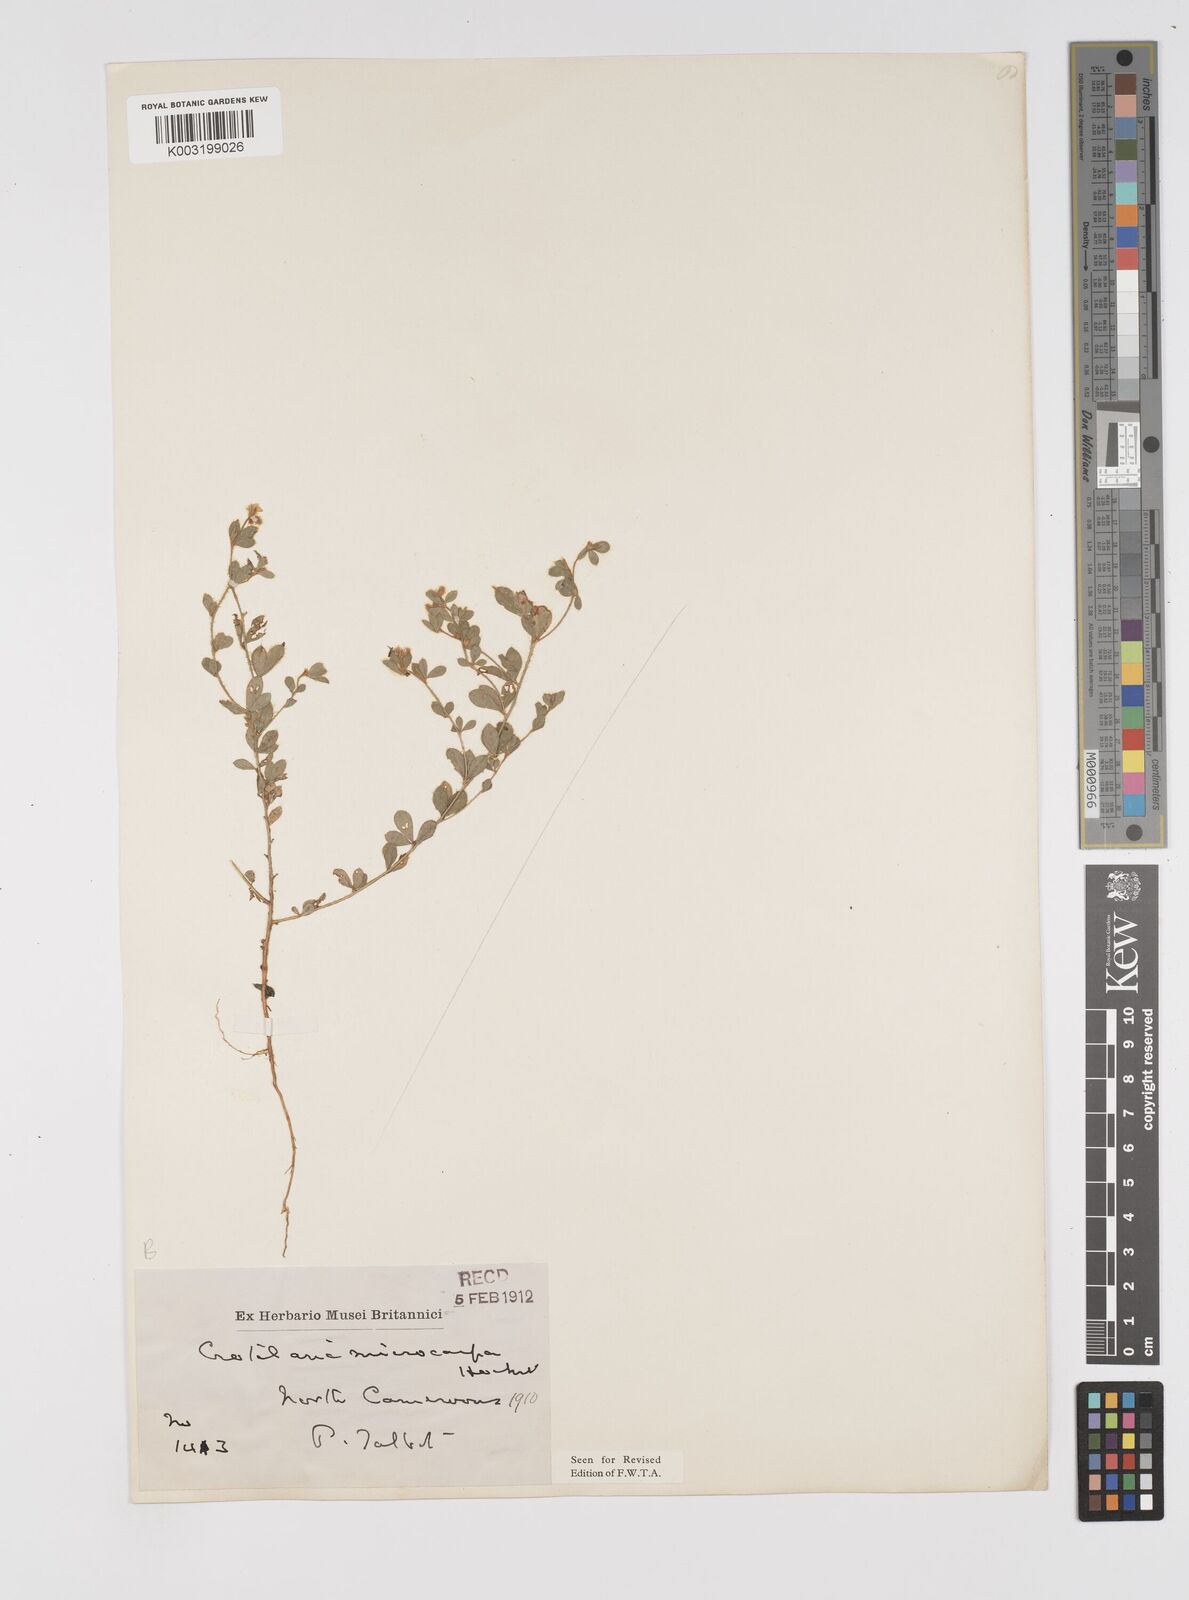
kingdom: Plantae
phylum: Tracheophyta
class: Magnoliopsida
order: Fabales
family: Fabaceae
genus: Crotalaria
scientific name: Crotalaria microcarpa
